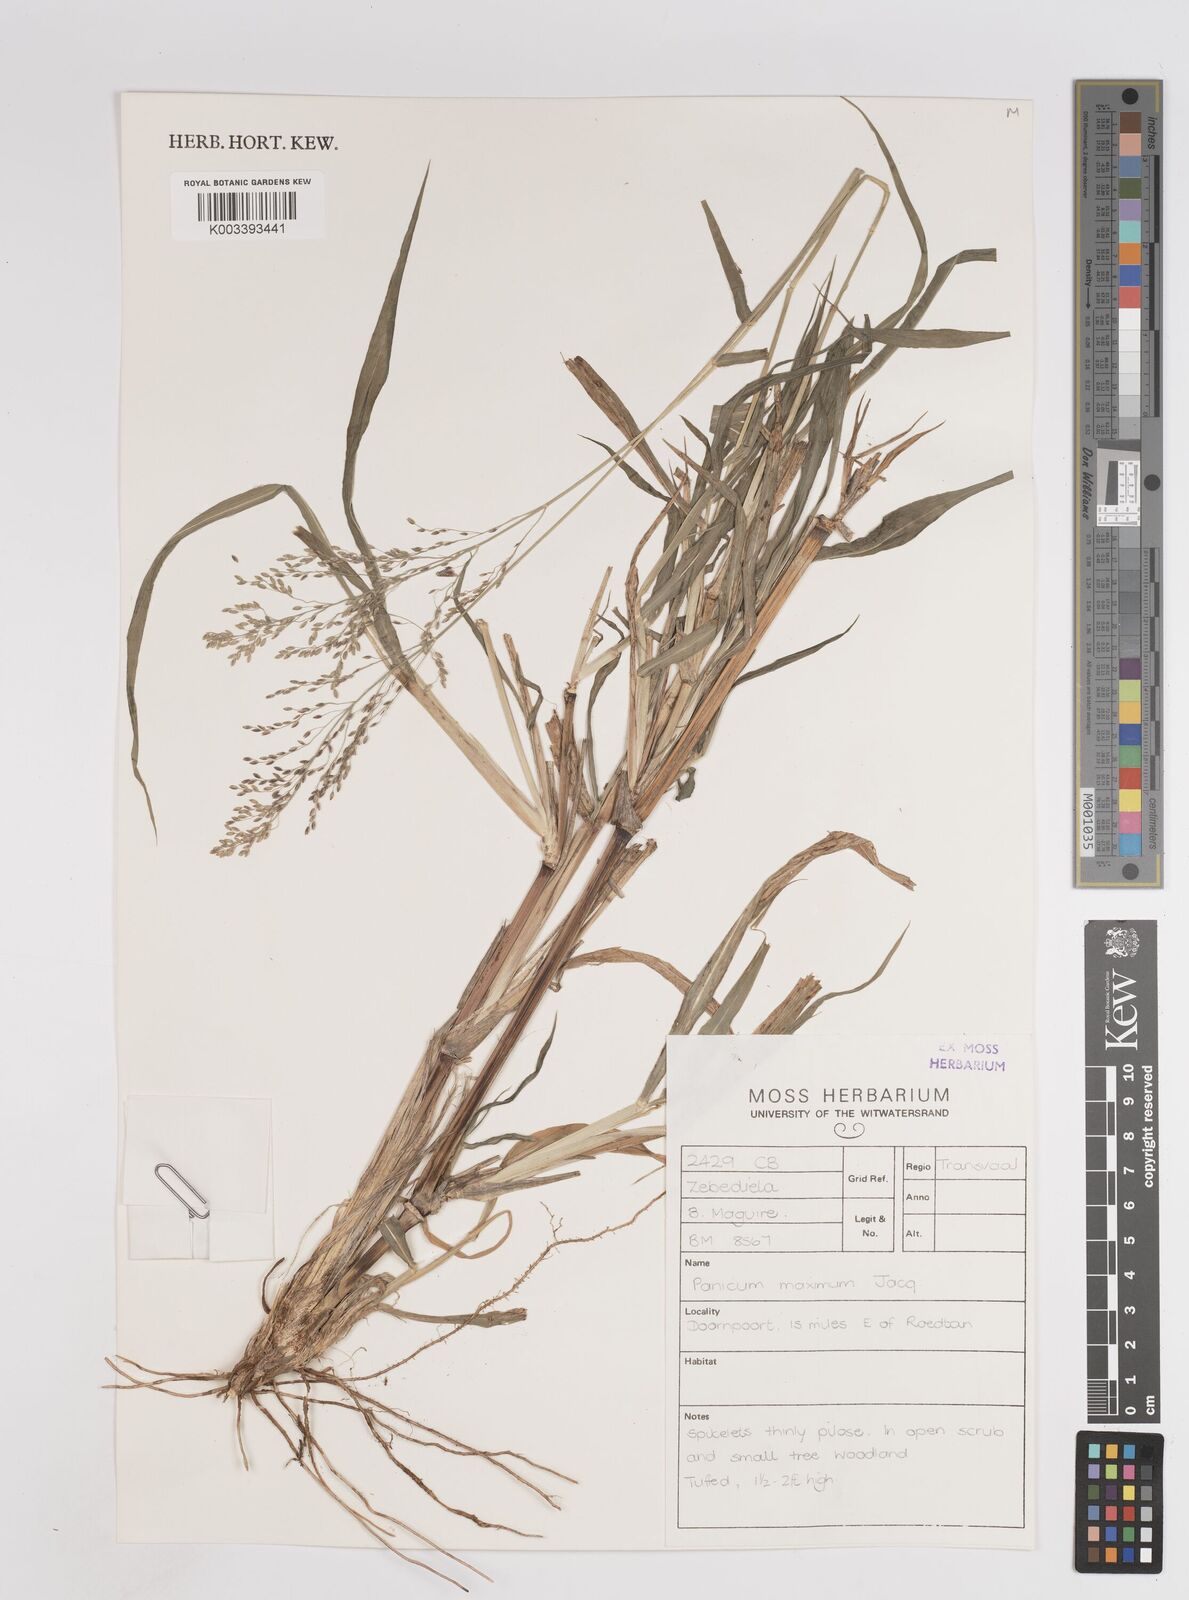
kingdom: Plantae
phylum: Tracheophyta
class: Liliopsida
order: Poales
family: Poaceae
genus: Megathyrsus
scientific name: Megathyrsus maximus
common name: Guineagrass
